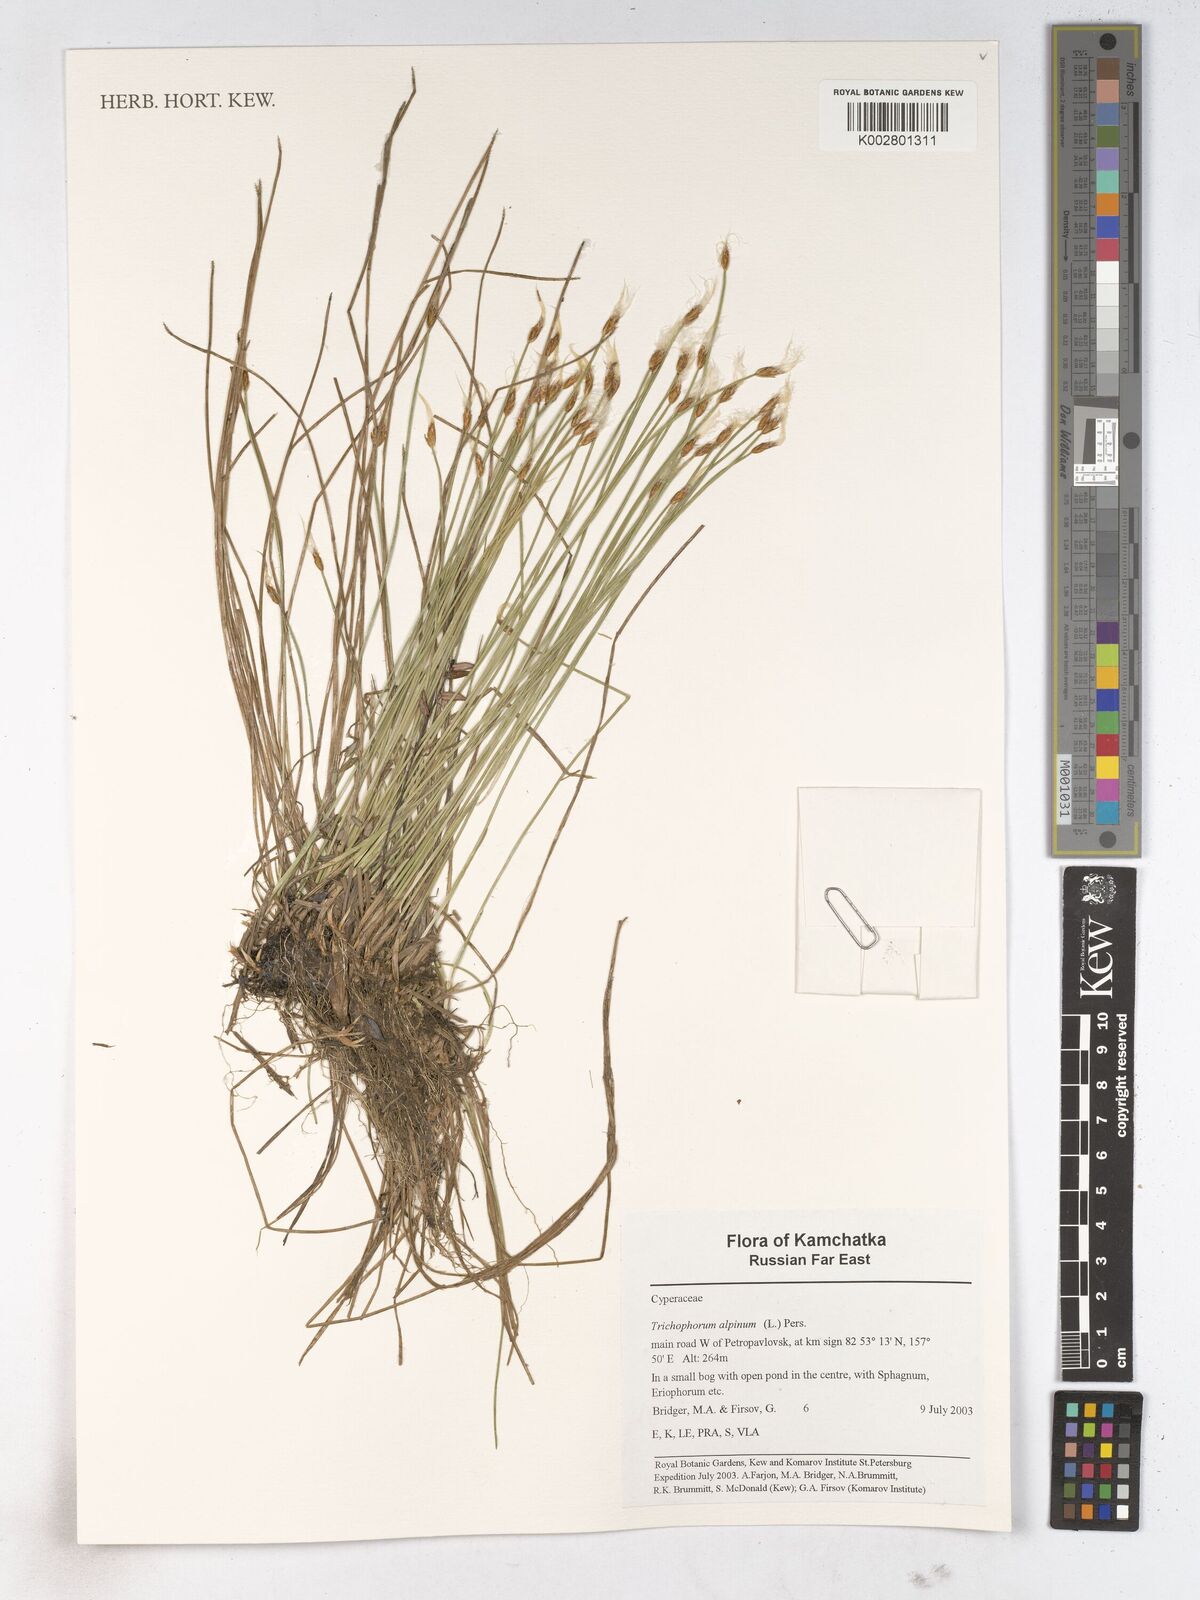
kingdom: Plantae
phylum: Tracheophyta
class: Liliopsida
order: Poales
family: Cyperaceae
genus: Trichophorum
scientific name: Trichophorum alpinum
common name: Alpine bulrush
